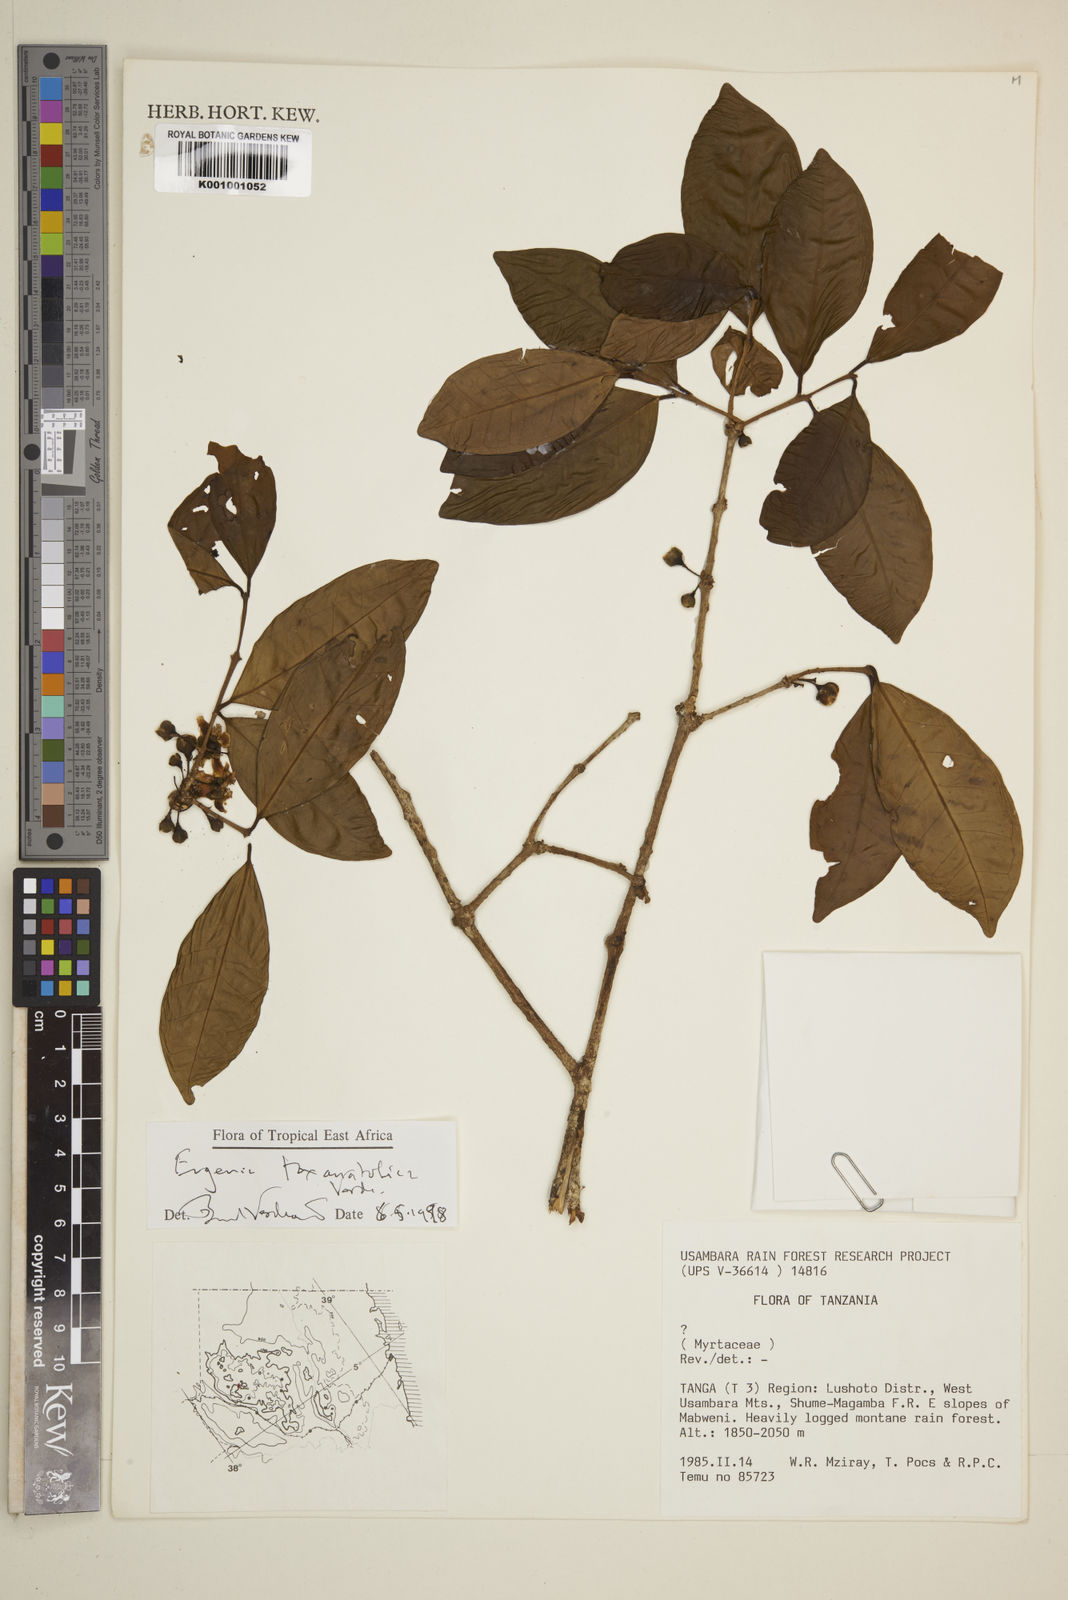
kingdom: Plantae
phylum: Tracheophyta
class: Magnoliopsida
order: Myrtales
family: Myrtaceae
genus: Eugenia
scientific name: Eugenia toxanatolica
